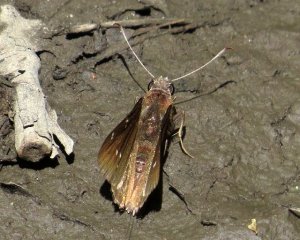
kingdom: Animalia
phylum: Arthropoda
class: Insecta
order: Lepidoptera
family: Hesperiidae
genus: Autochton
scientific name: Autochton
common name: Northern Cloudywing
